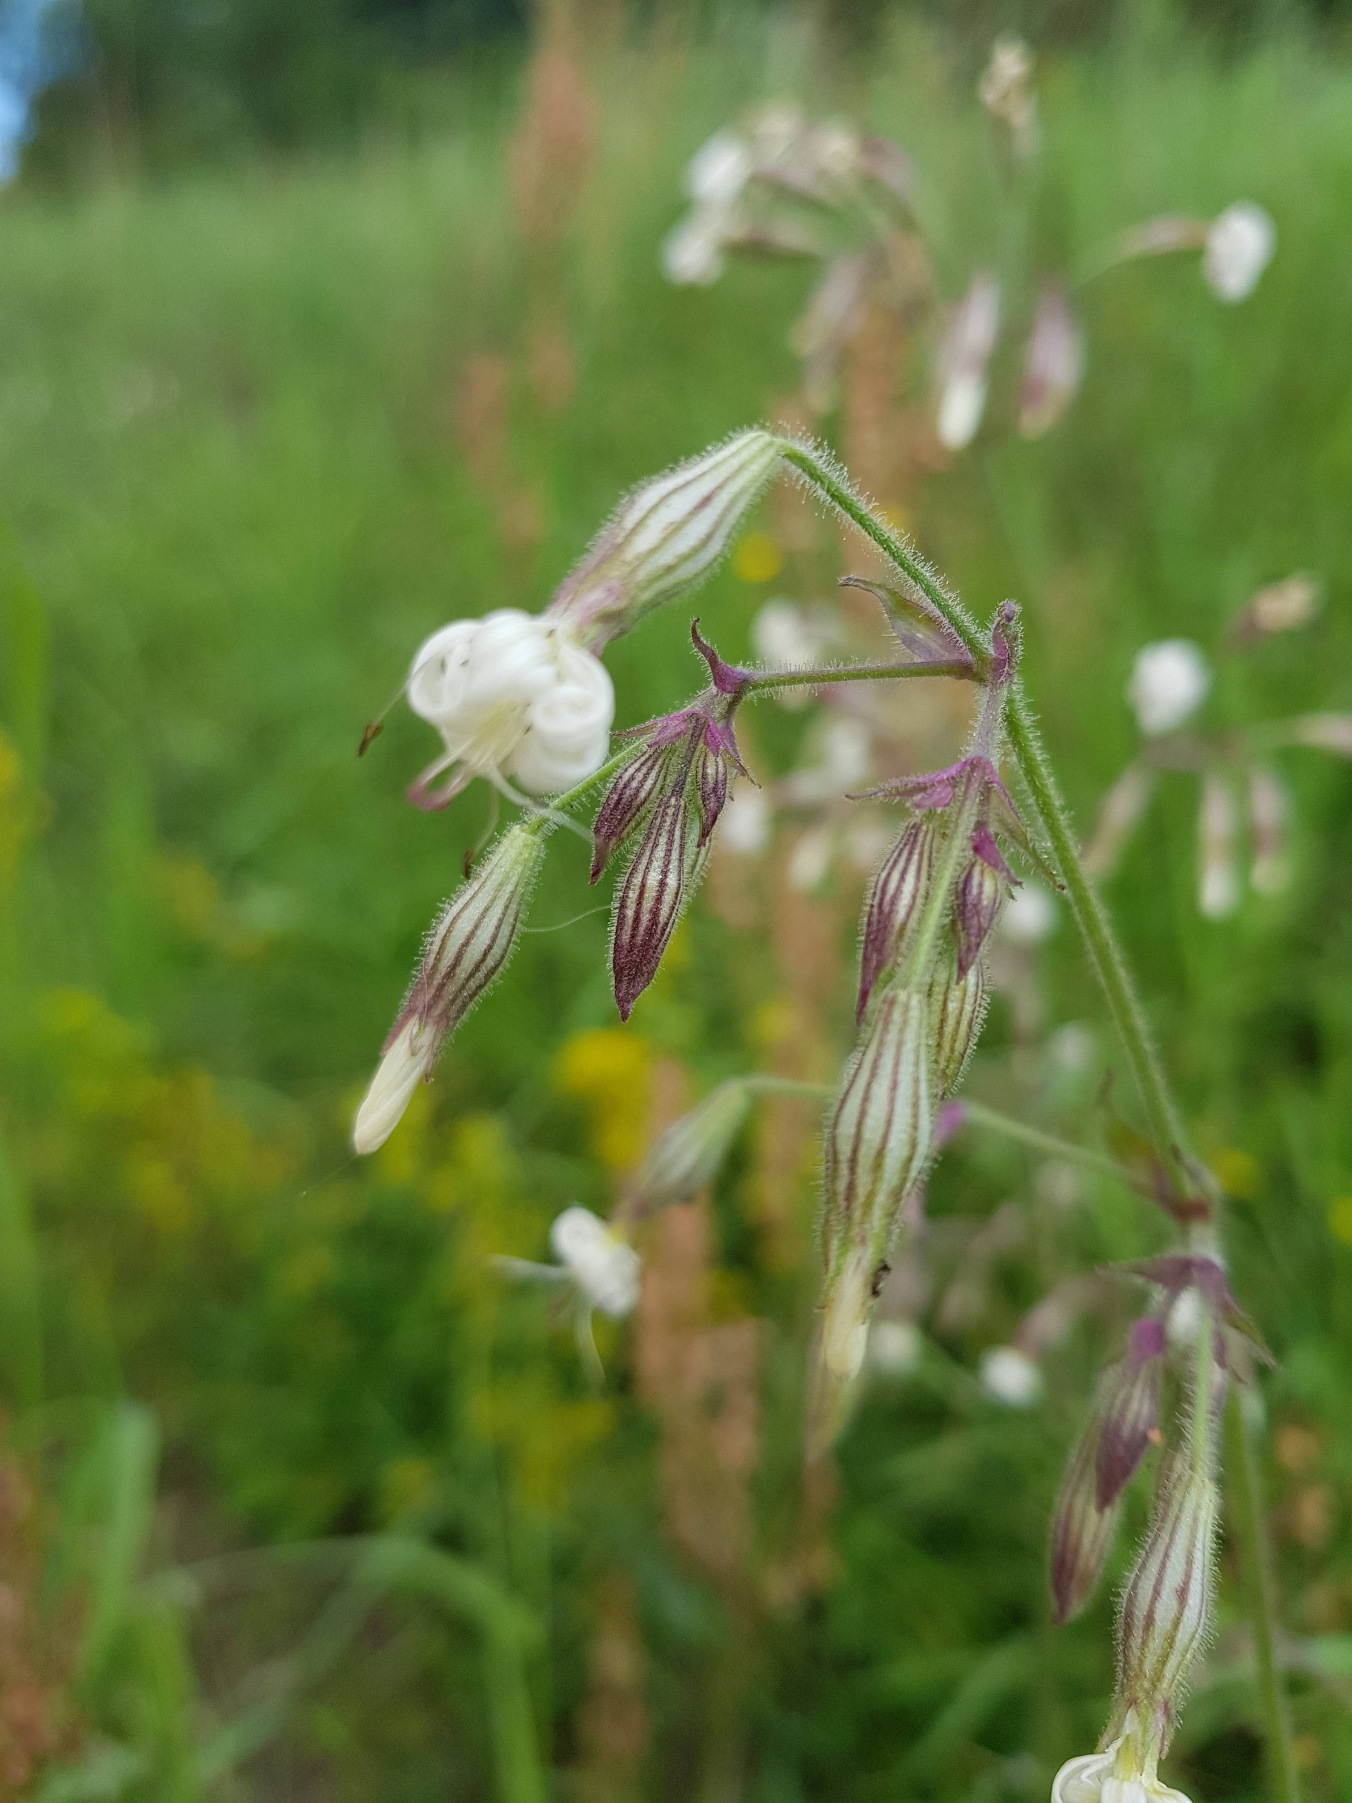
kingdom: Plantae
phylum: Tracheophyta
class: Magnoliopsida
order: Caryophyllales
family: Caryophyllaceae
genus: Silene
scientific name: Silene nutans
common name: Nikkende limurt
